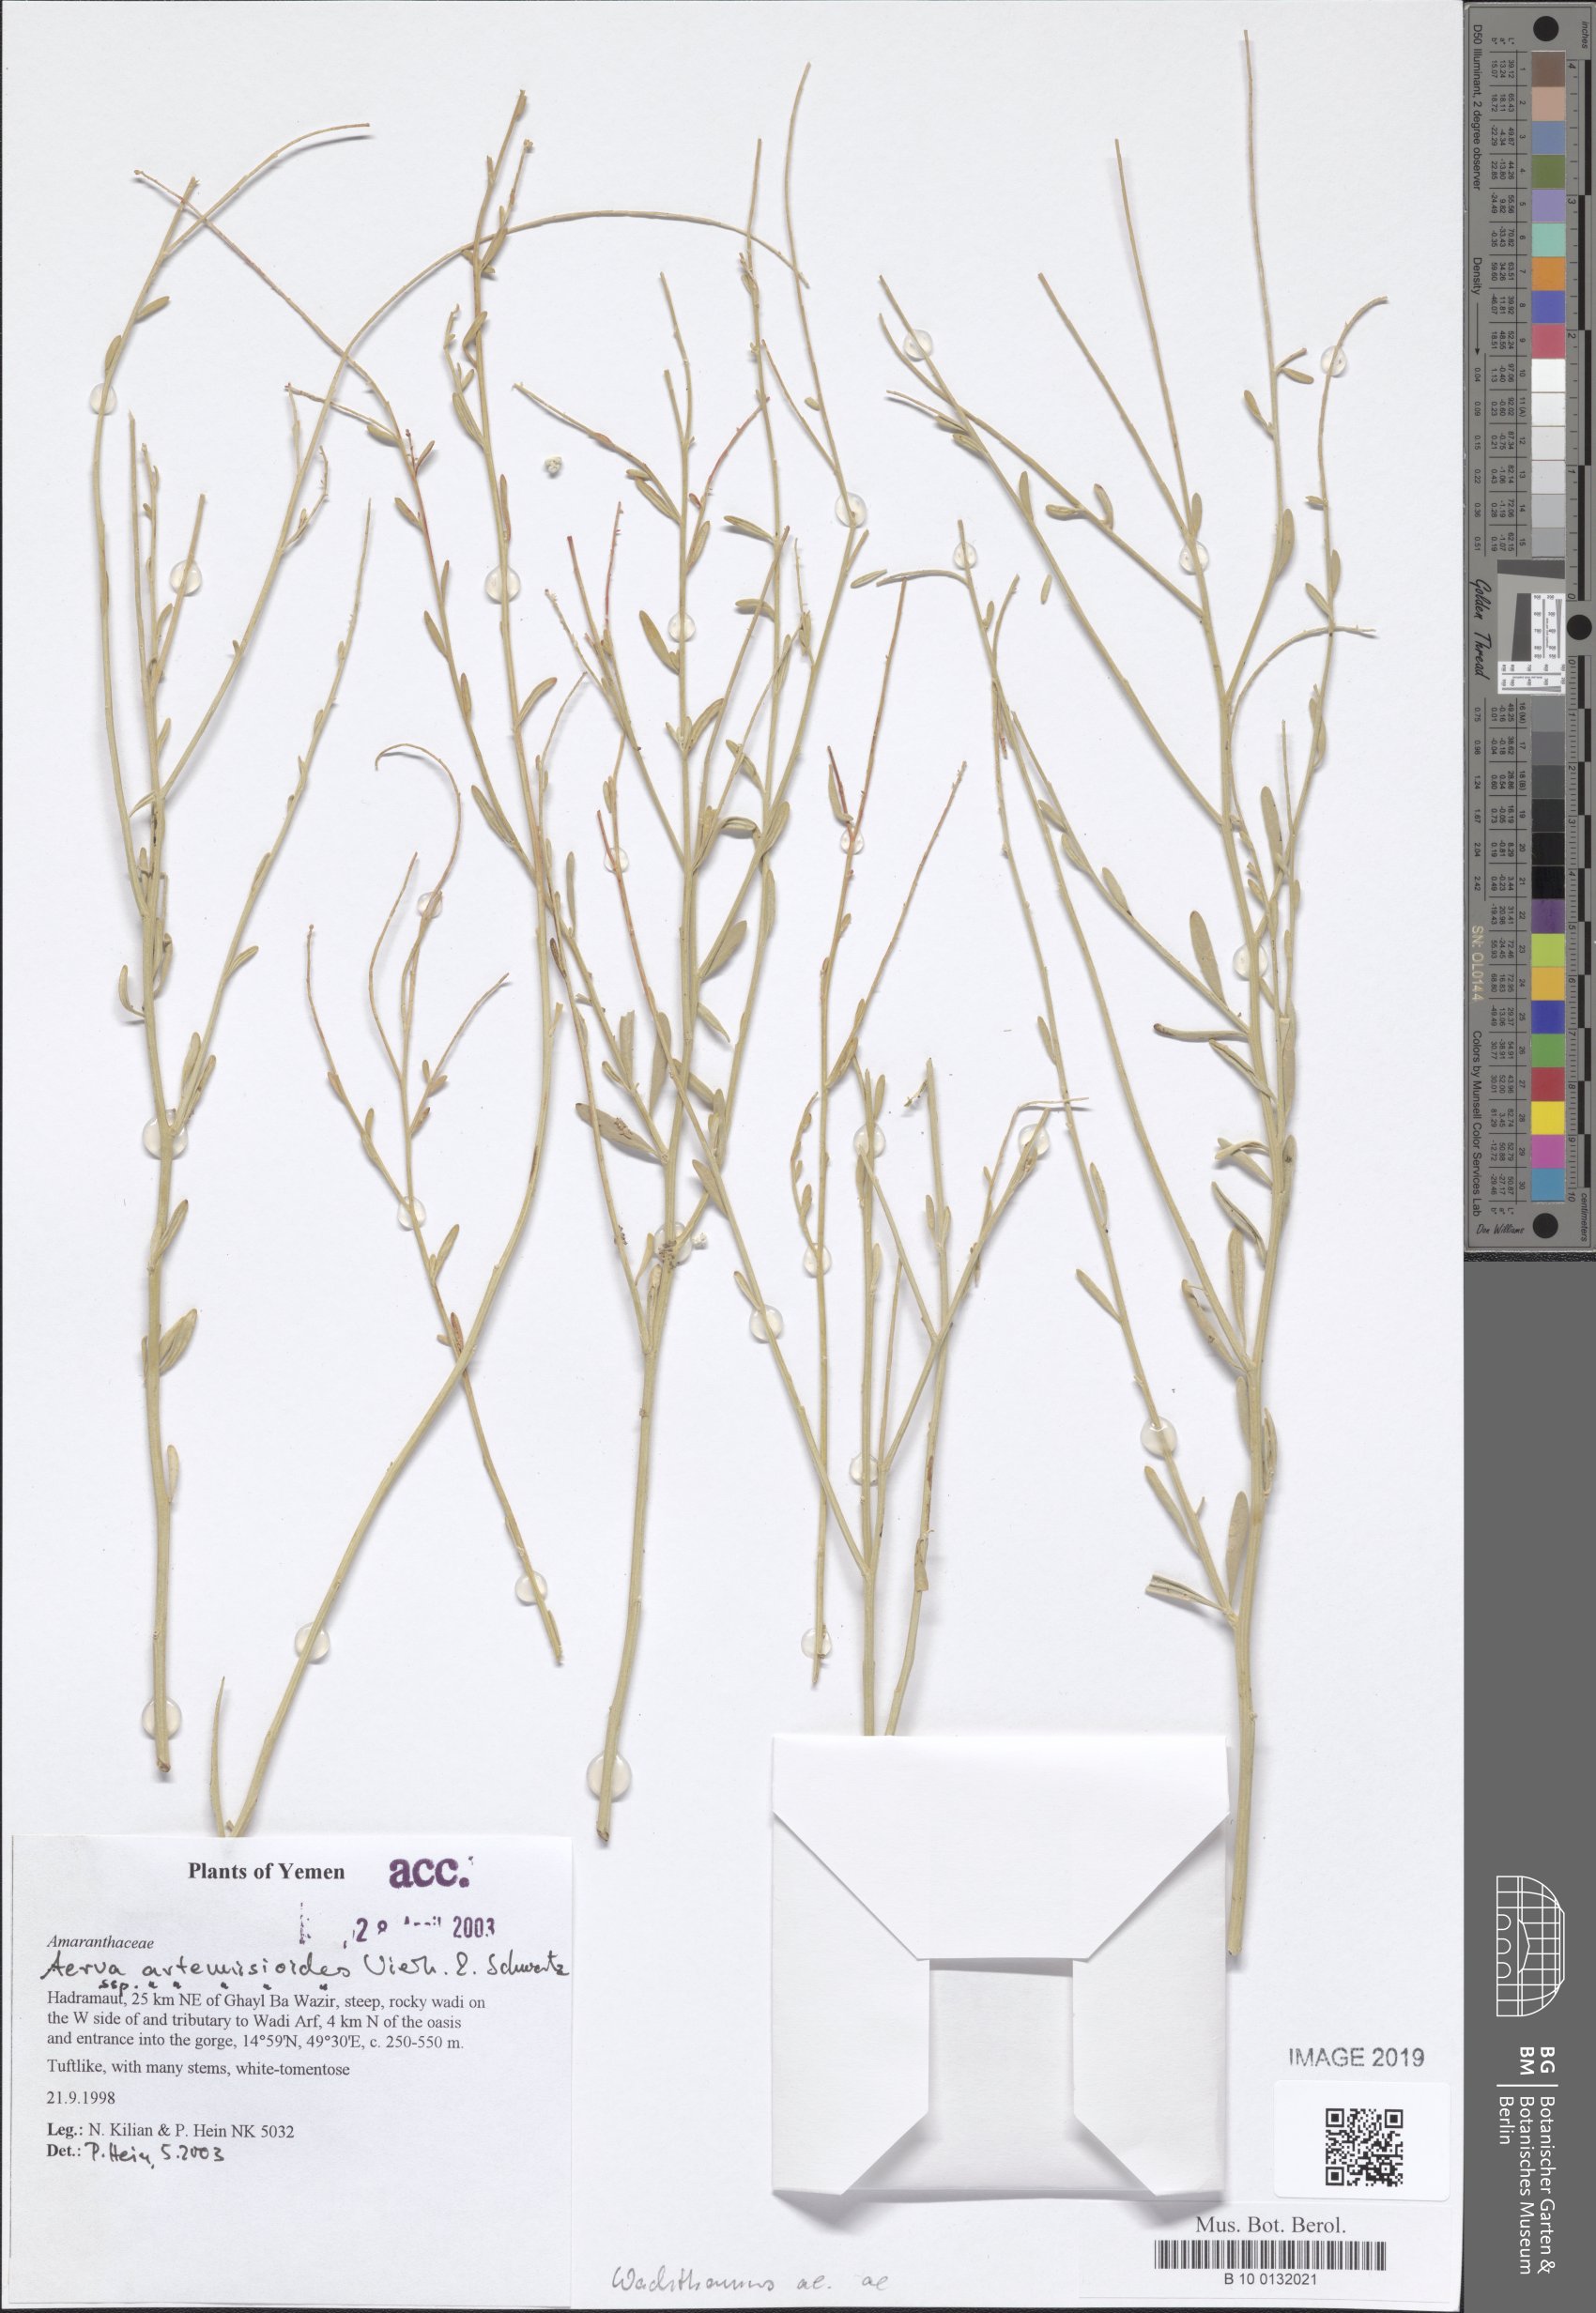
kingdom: Plantae
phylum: Tracheophyta
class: Magnoliopsida
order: Caryophyllales
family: Amaranthaceae
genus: Wadithamnus
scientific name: Wadithamnus artemisioides
